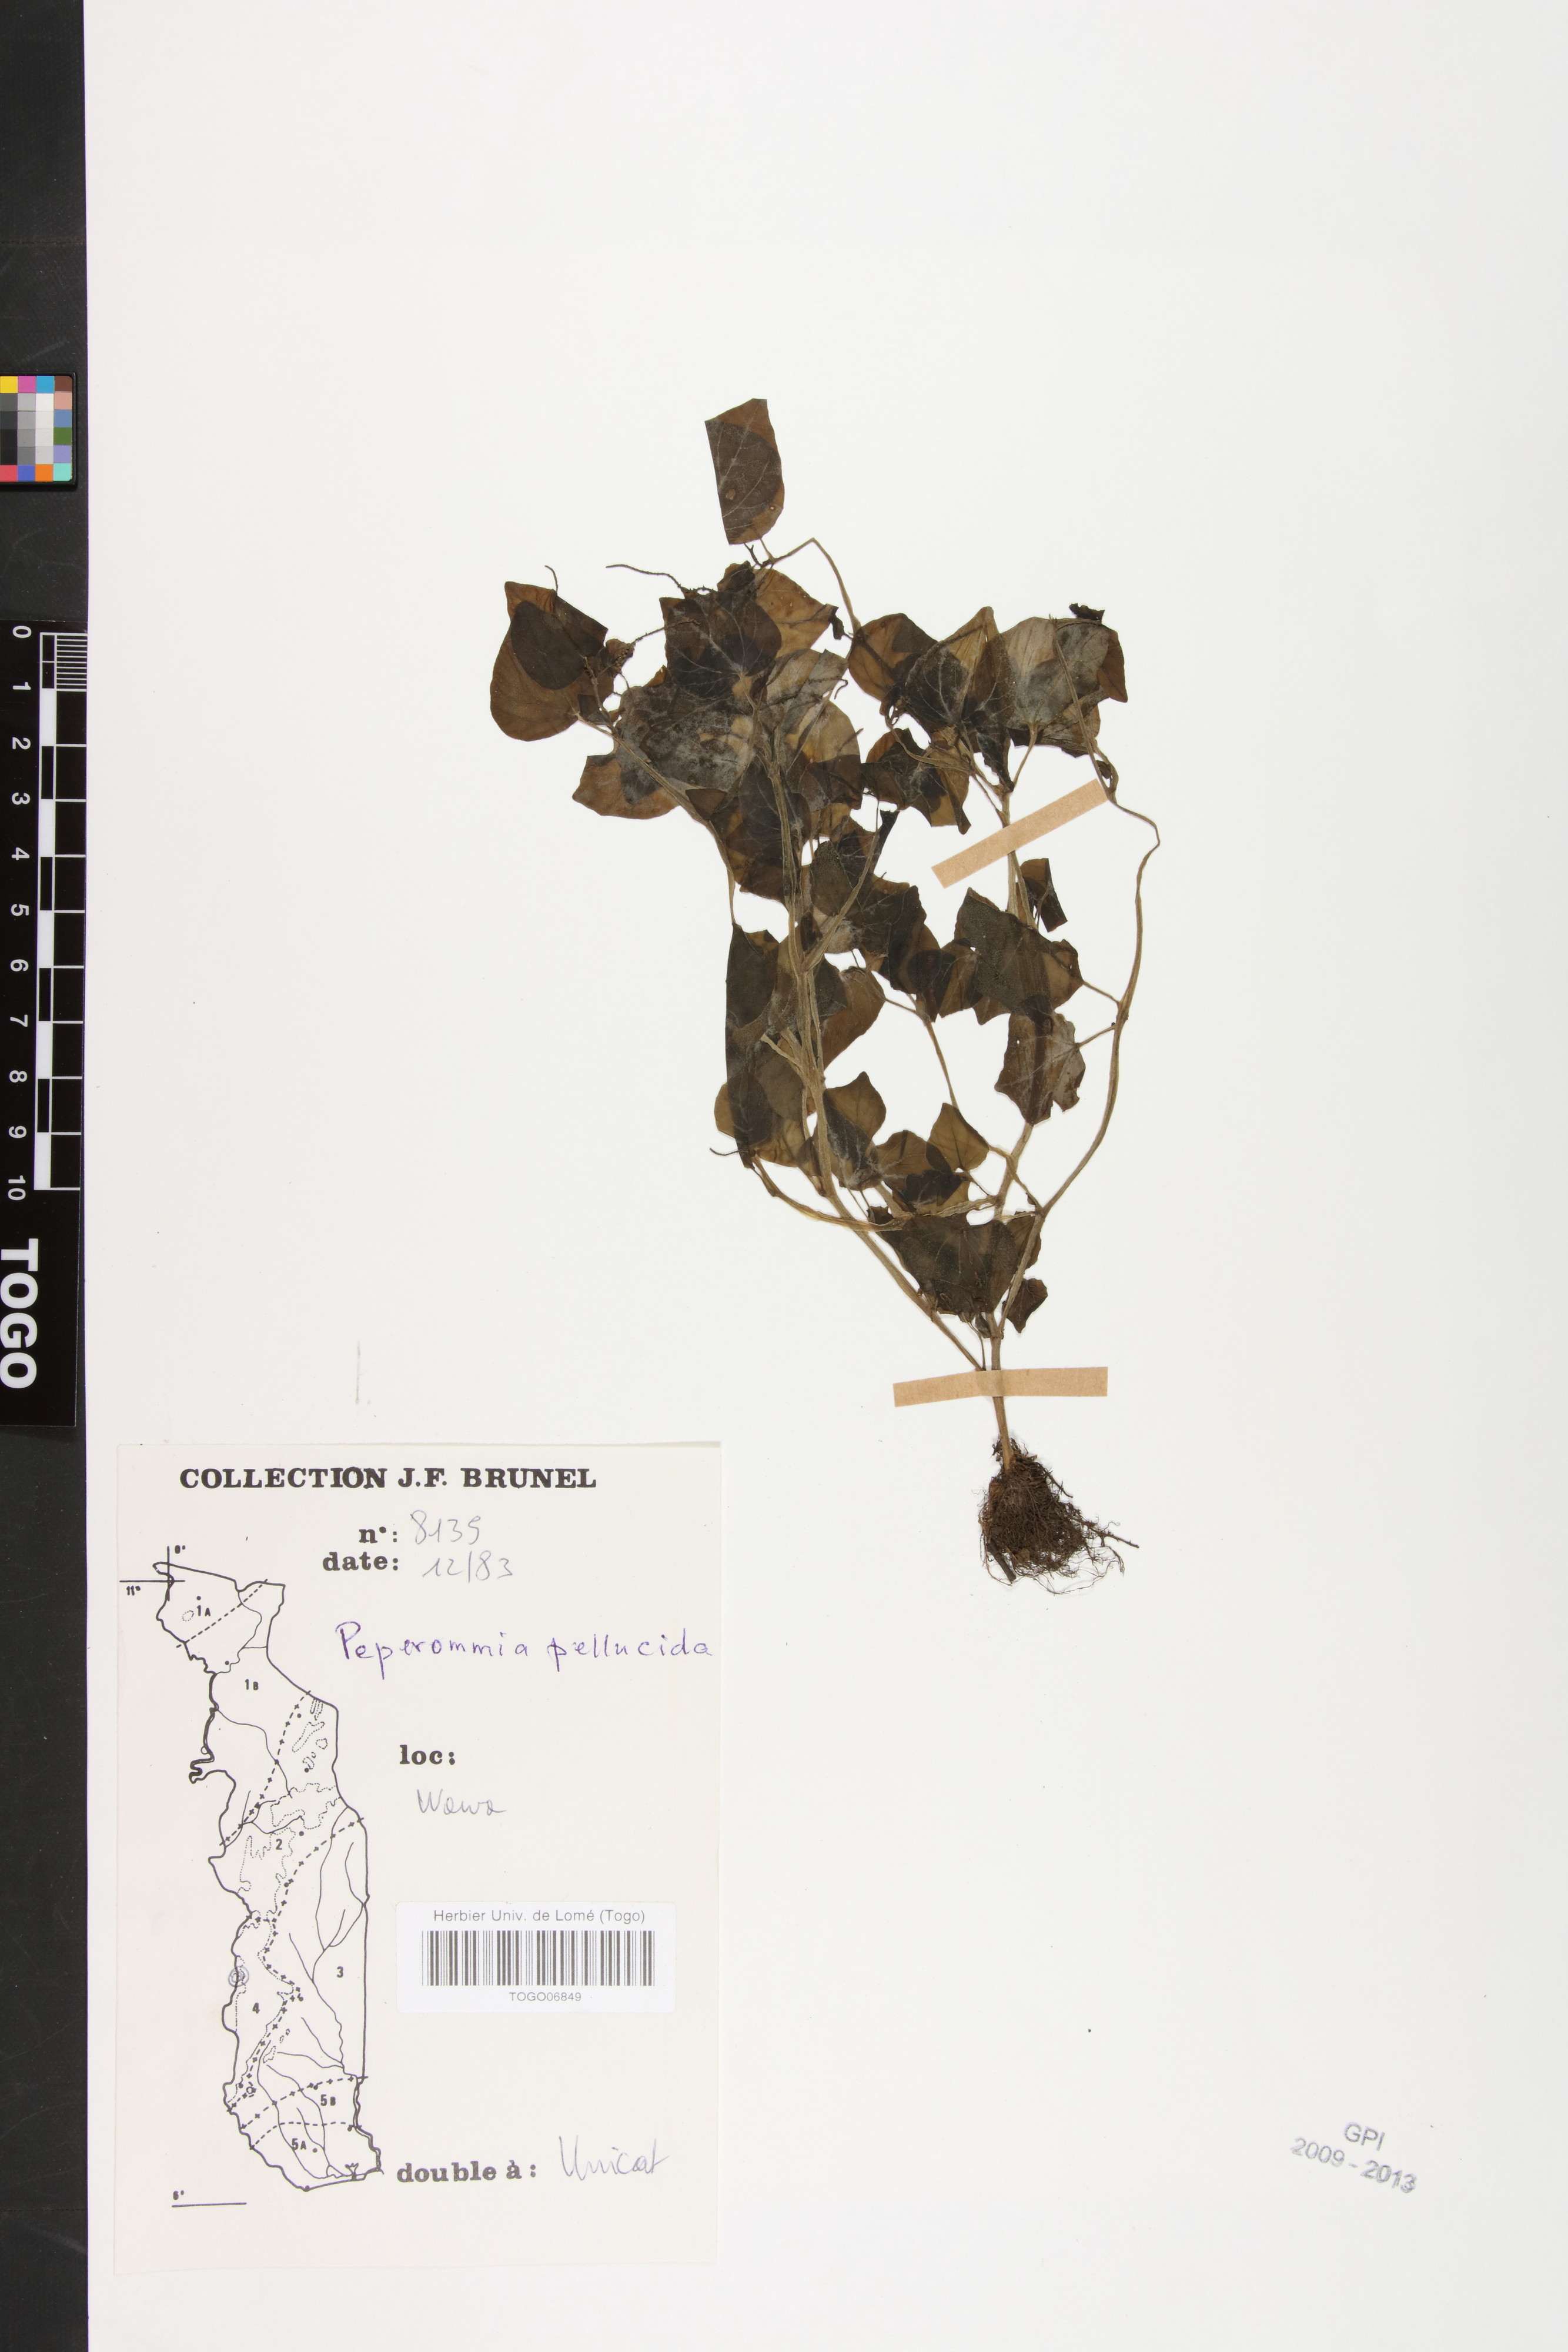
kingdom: Plantae
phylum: Tracheophyta
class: Magnoliopsida
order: Piperales
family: Piperaceae
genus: Peperomia
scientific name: Peperomia pellucida
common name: Man to man
